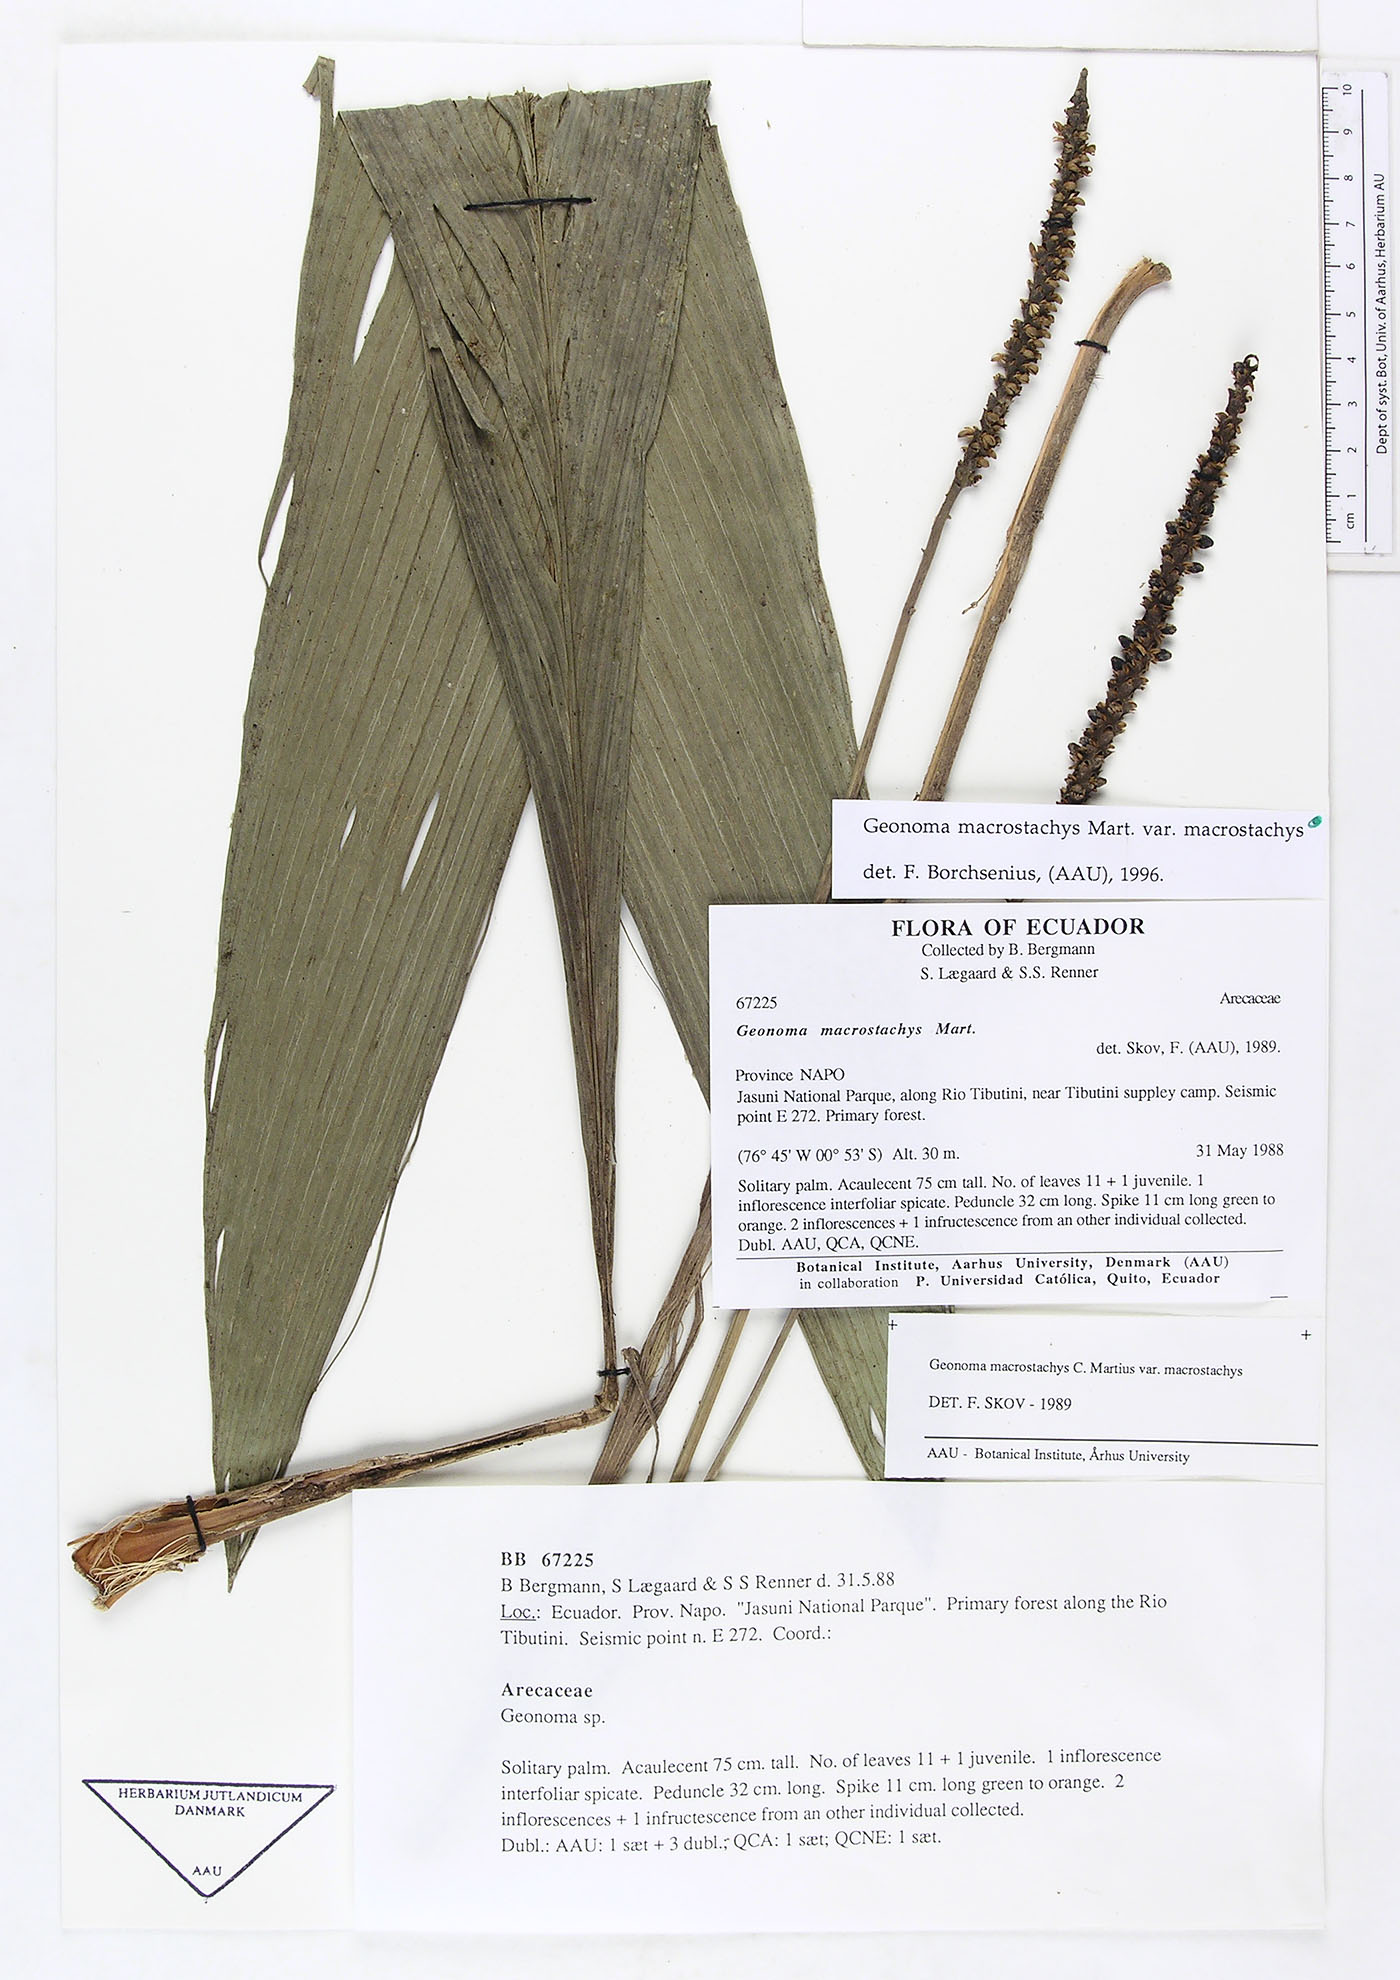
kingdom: Plantae
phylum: Tracheophyta
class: Liliopsida
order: Arecales
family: Arecaceae
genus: Geonoma
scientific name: Geonoma macrostachys
